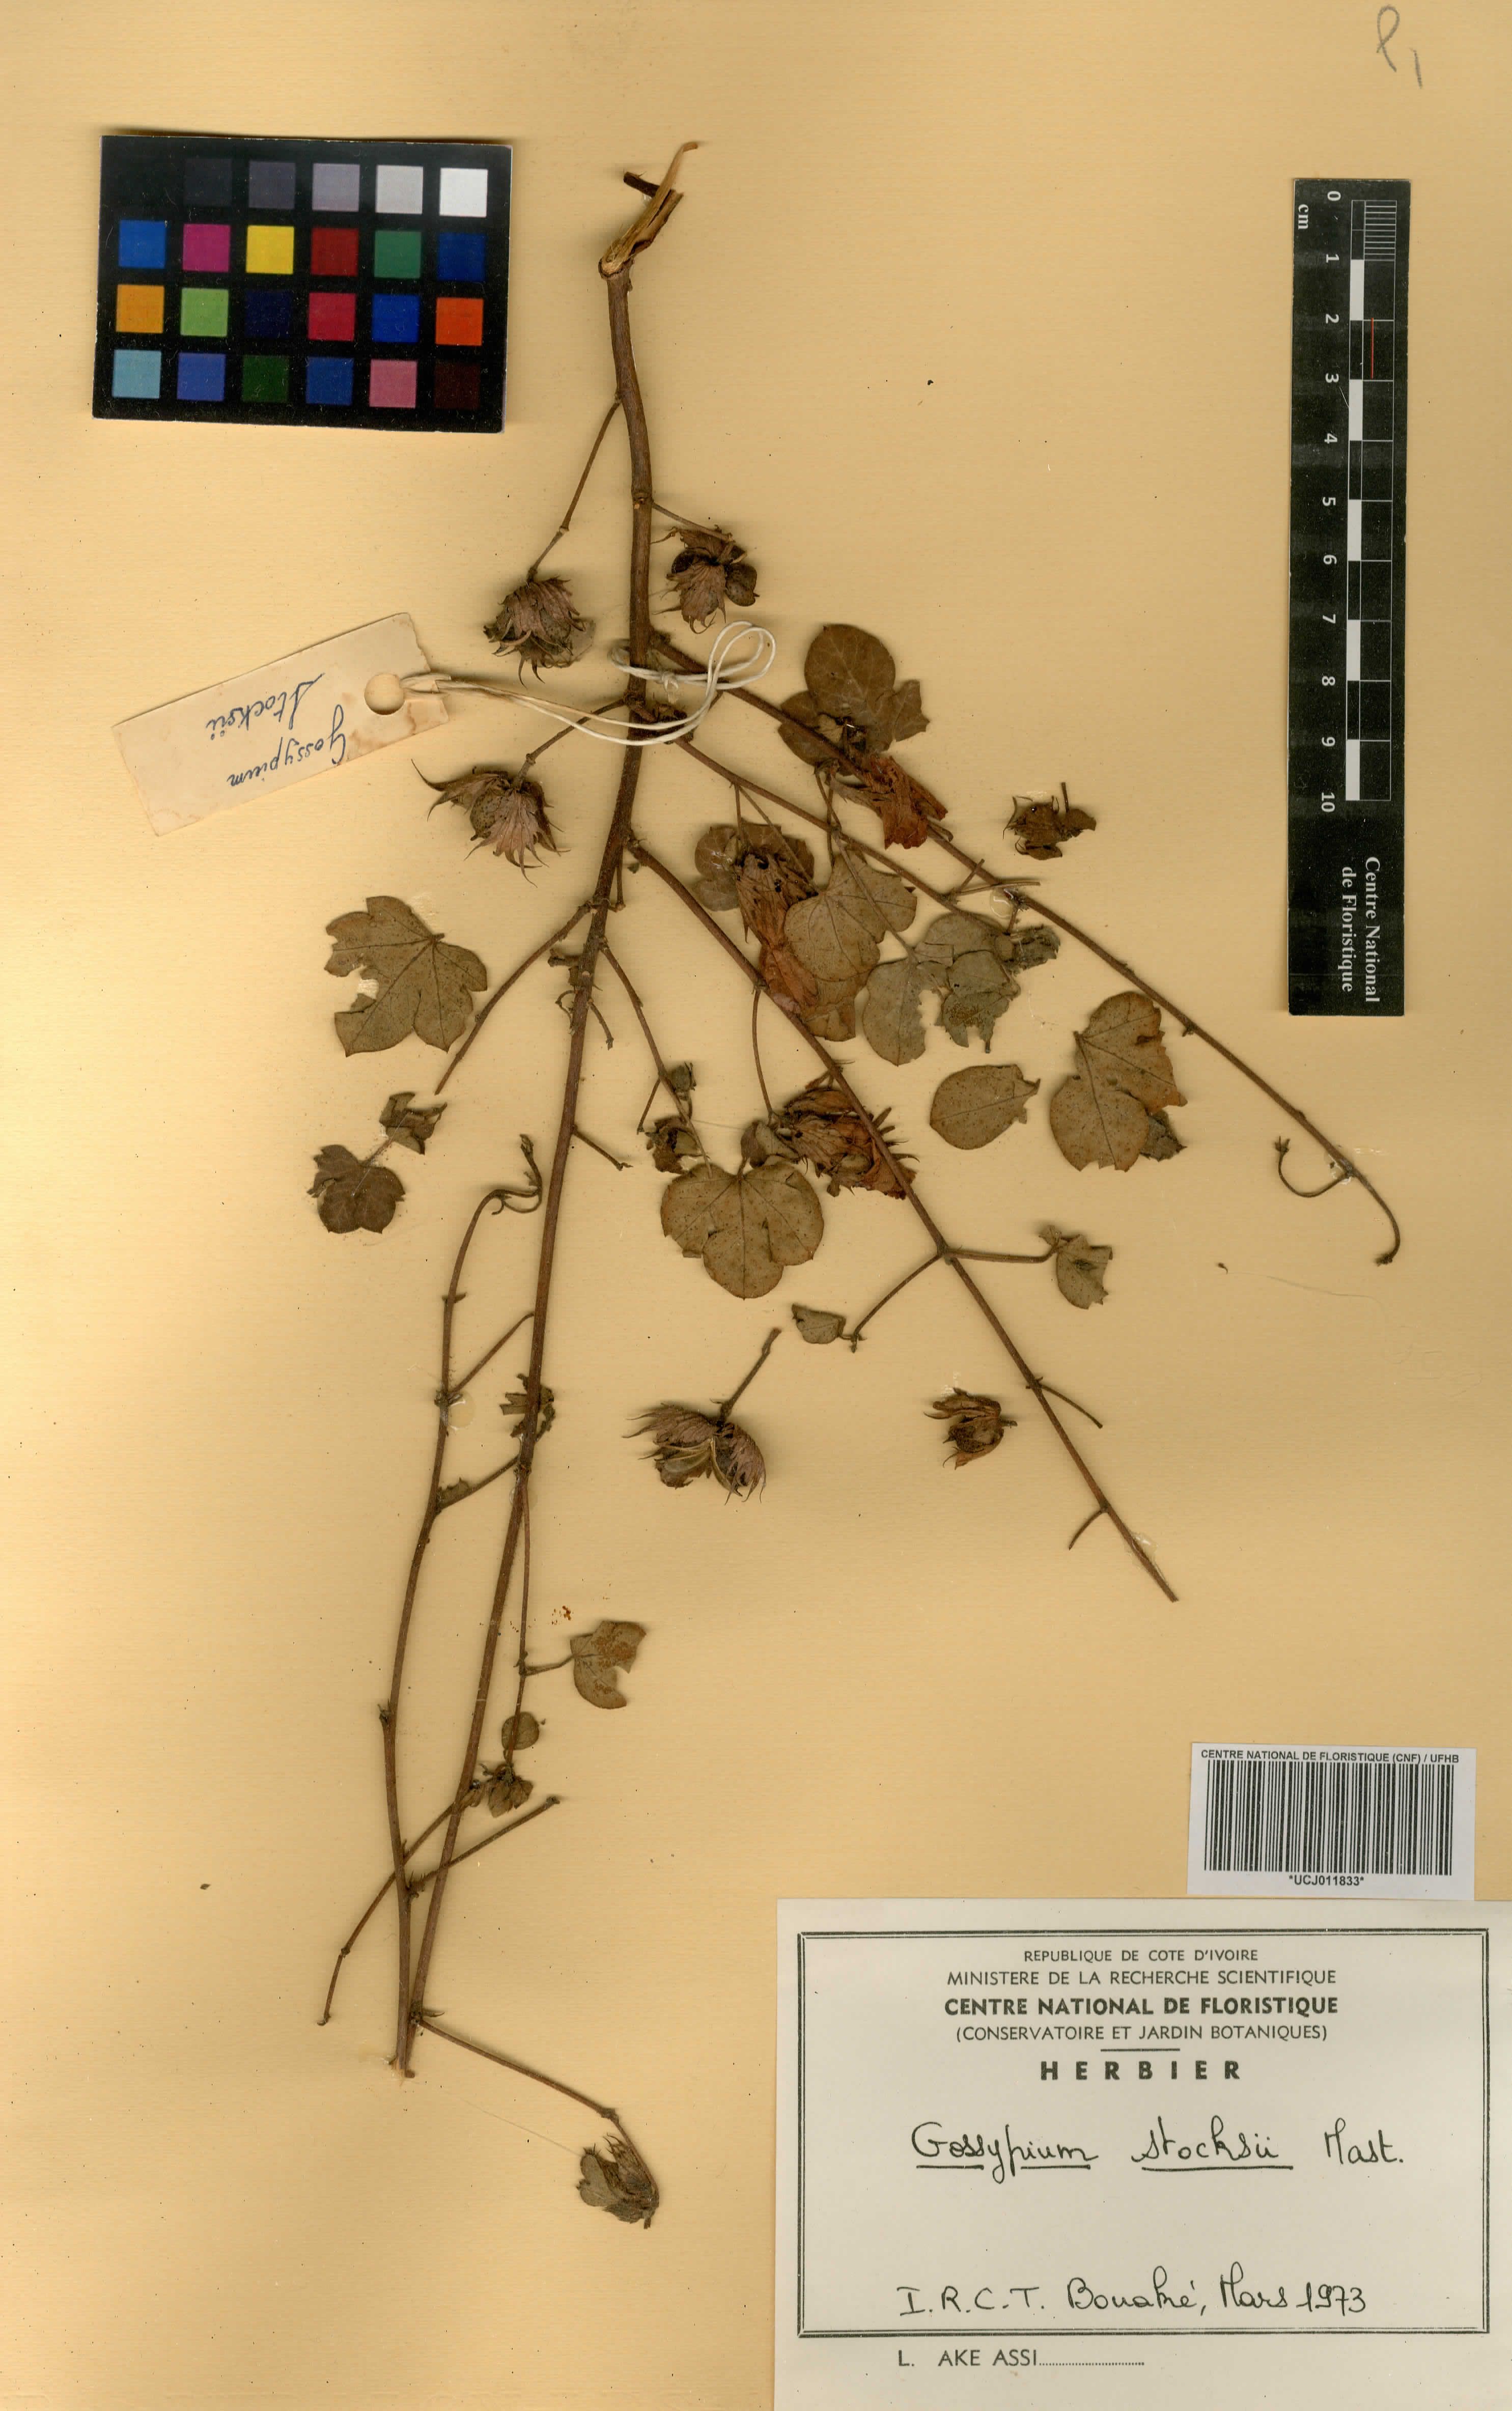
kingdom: Plantae
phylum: Tracheophyta
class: Magnoliopsida
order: Malvales
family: Malvaceae
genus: Gossypium
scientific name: Gossypium stocksii
